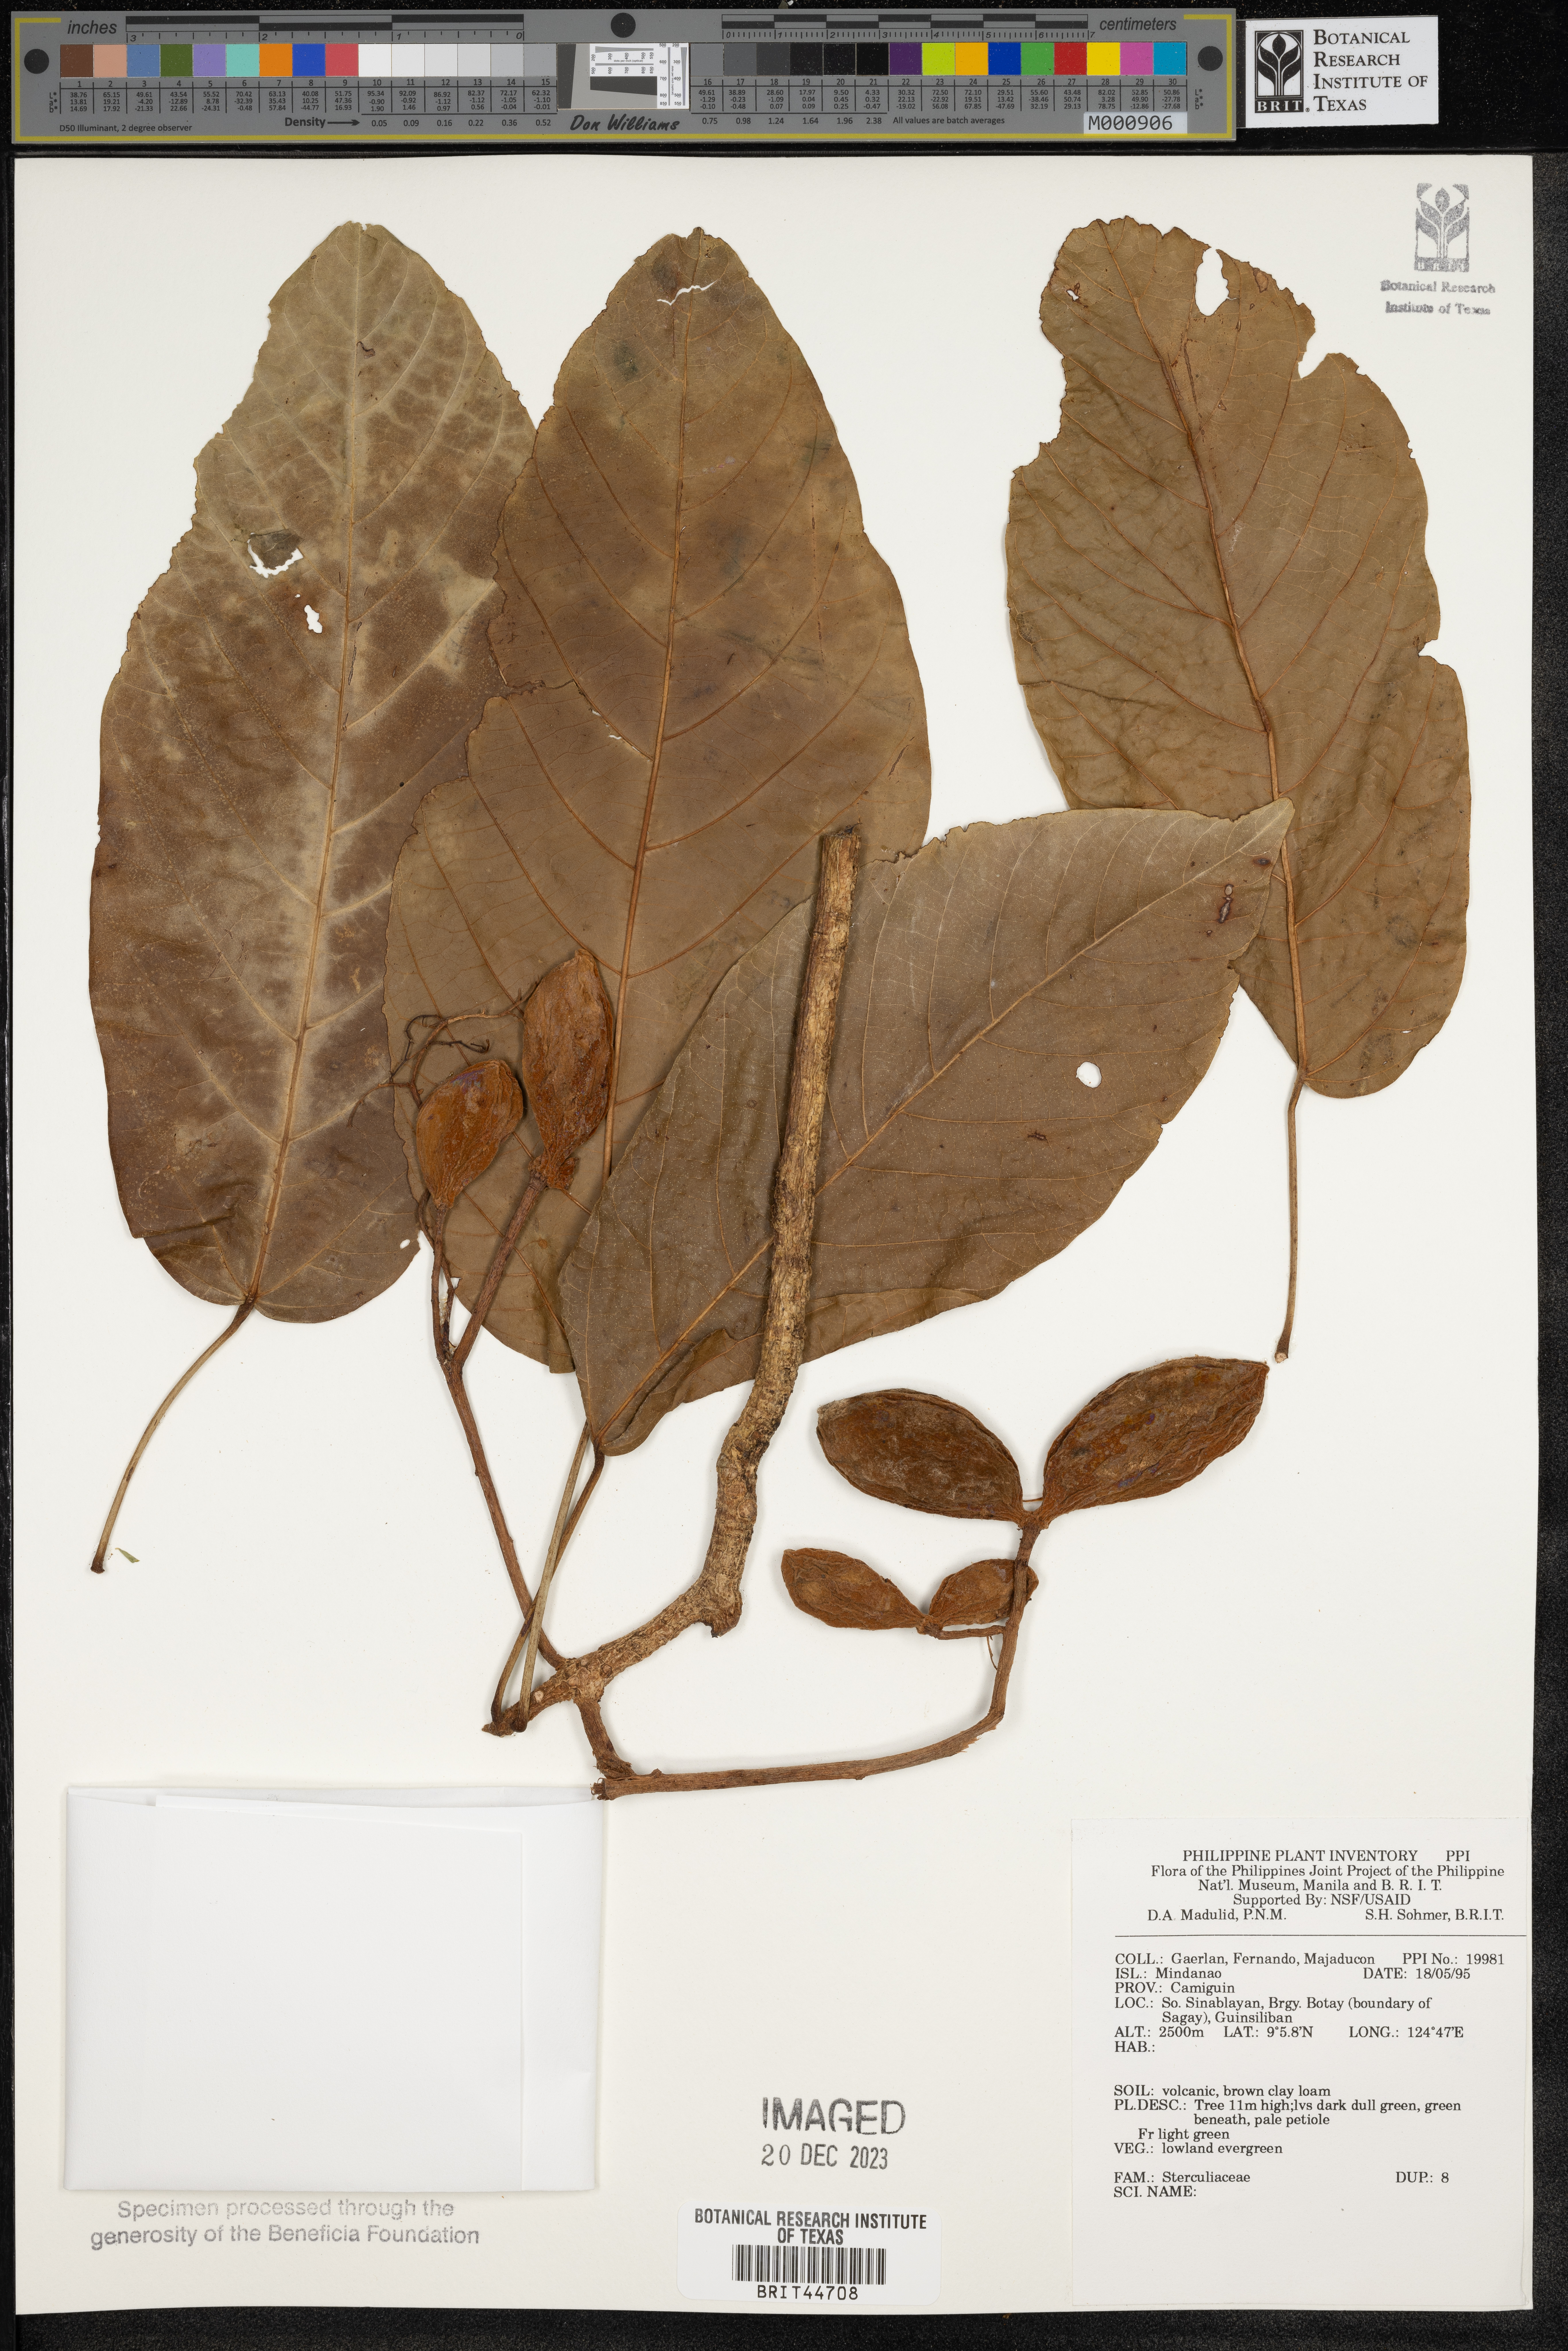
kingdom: Plantae
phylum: Tracheophyta
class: Magnoliopsida
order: Malvales
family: Sterculiaceae
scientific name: Sterculiaceae
